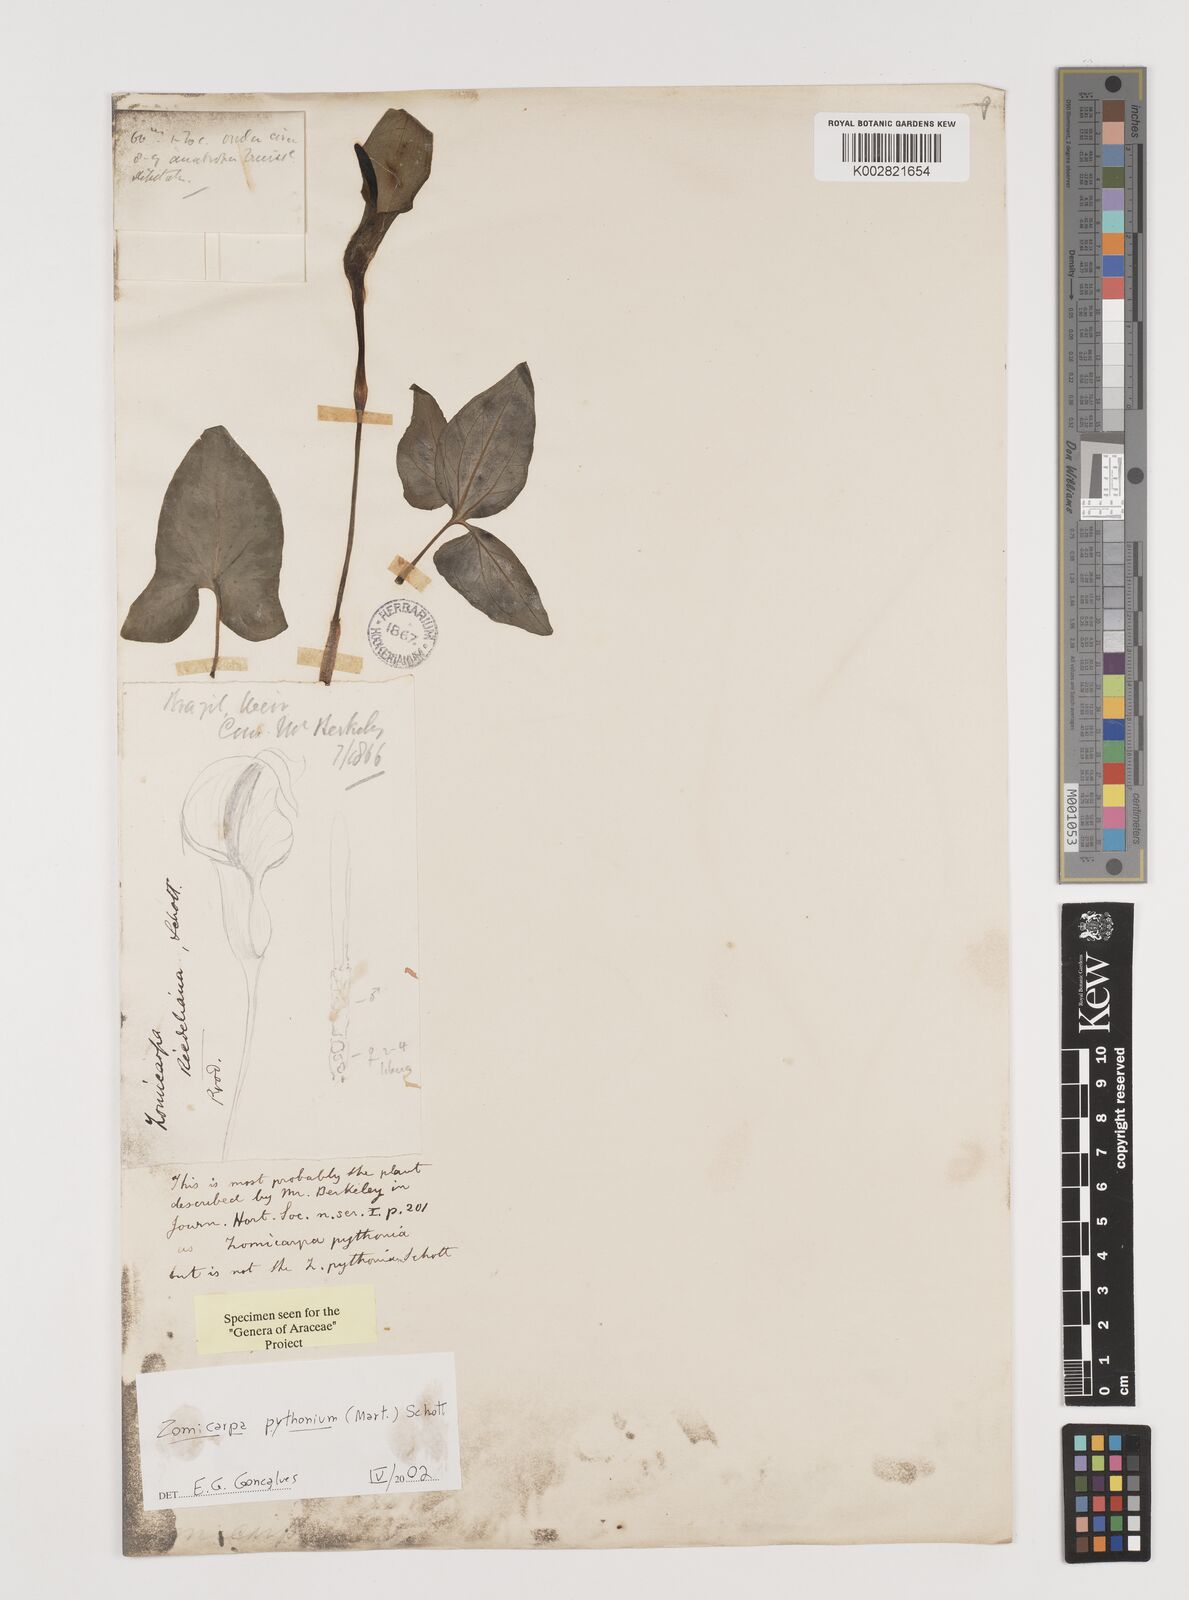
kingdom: Plantae
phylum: Tracheophyta
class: Liliopsida
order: Alismatales
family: Araceae
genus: Zomicarpa
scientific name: Zomicarpa pythonium
